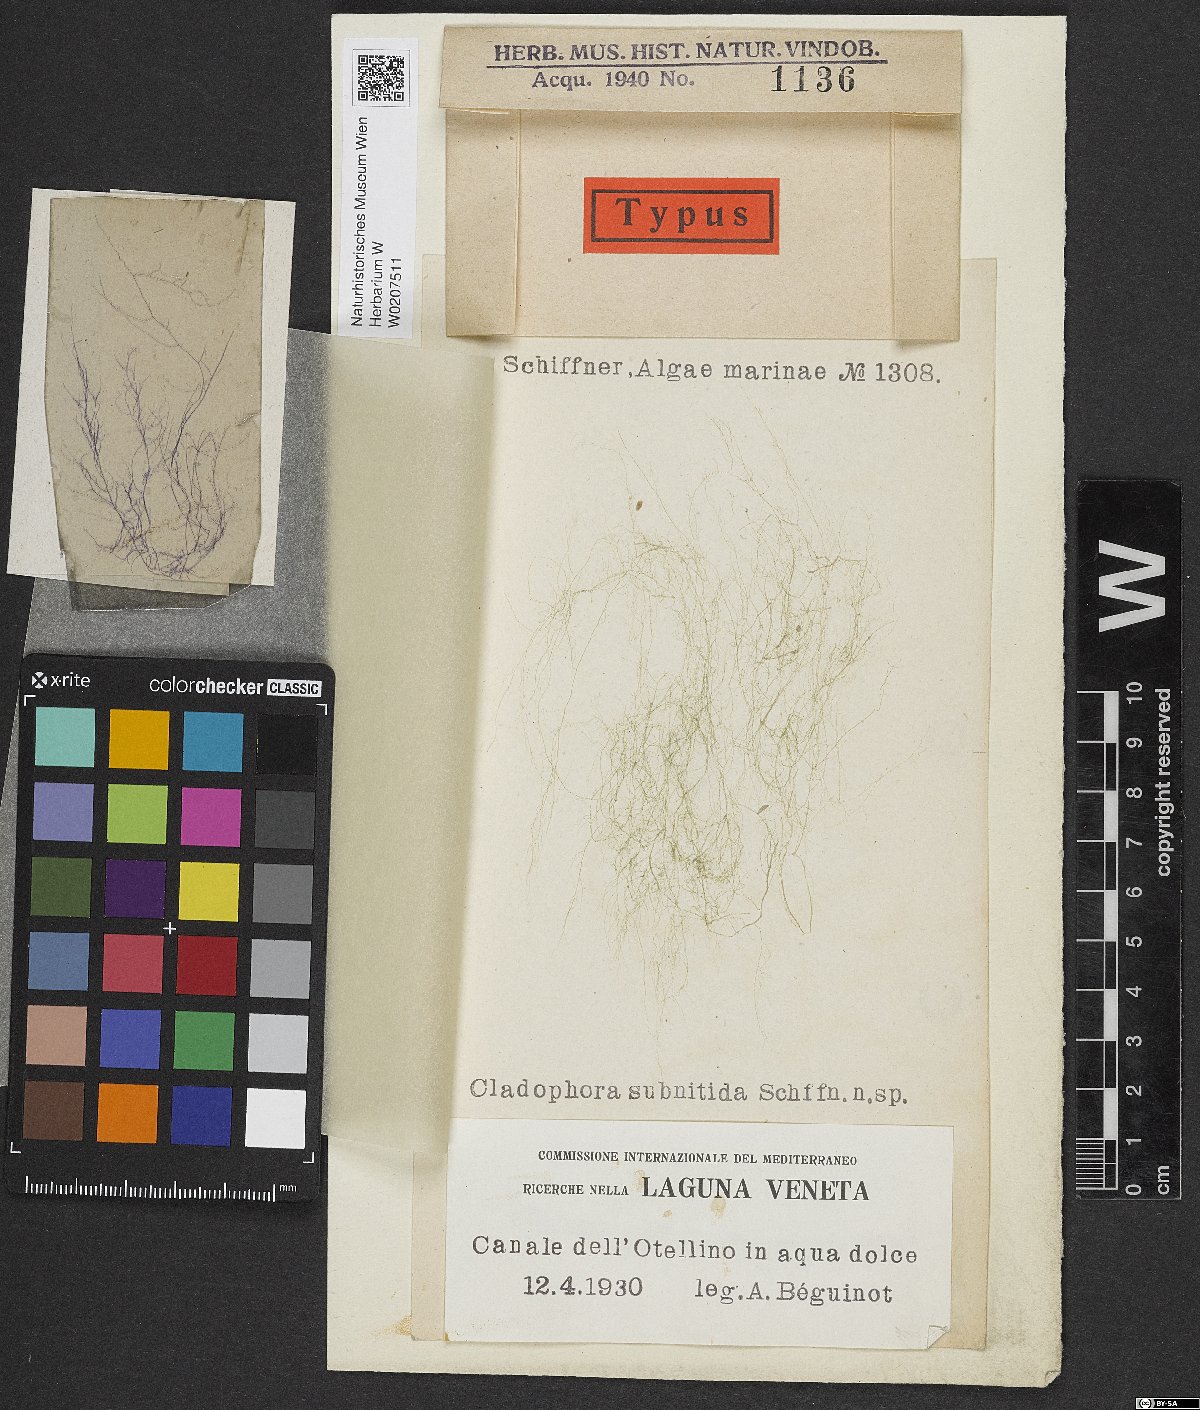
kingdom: Plantae
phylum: Chlorophyta
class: Ulvophyceae
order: Cladophorales
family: Cladophoraceae
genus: Cladophora
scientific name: Cladophora
